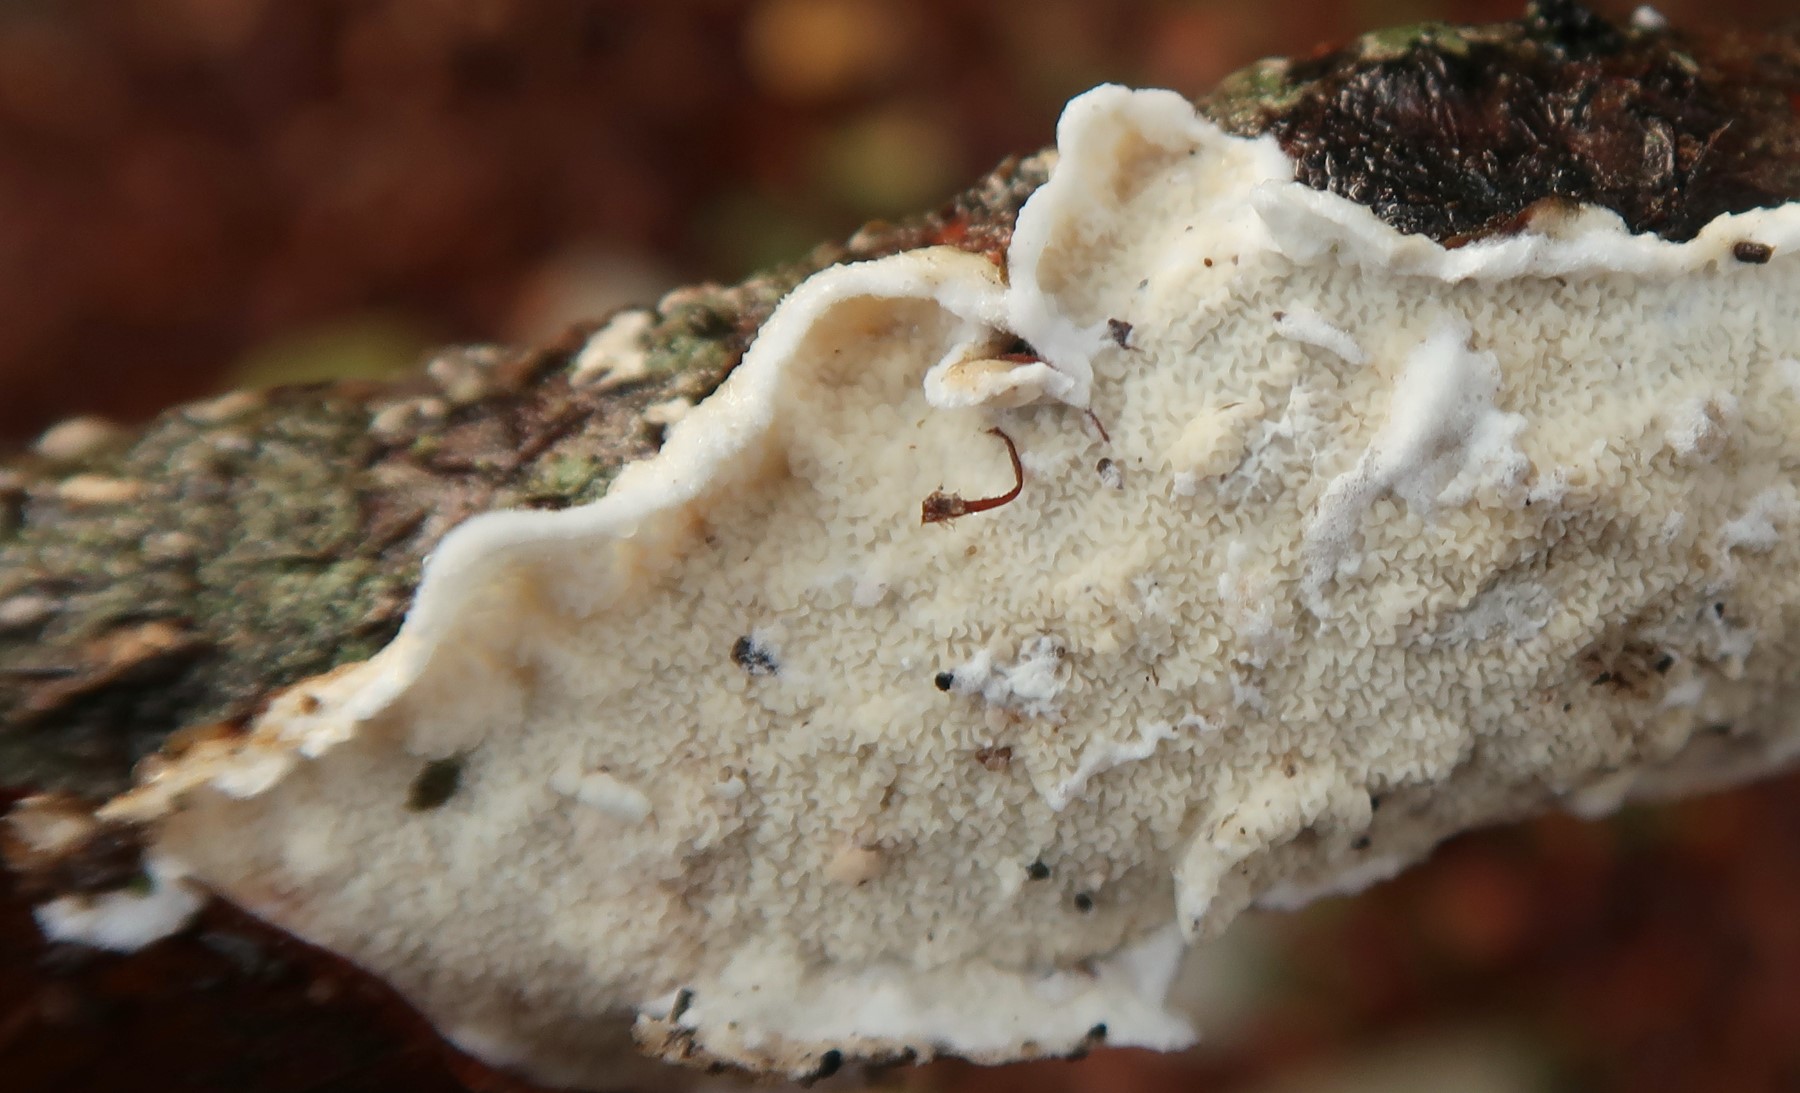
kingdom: Fungi
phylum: Basidiomycota
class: Agaricomycetes
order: Polyporales
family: Irpicaceae
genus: Byssomerulius
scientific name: Byssomerulius corium
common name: læder-åresvamp
